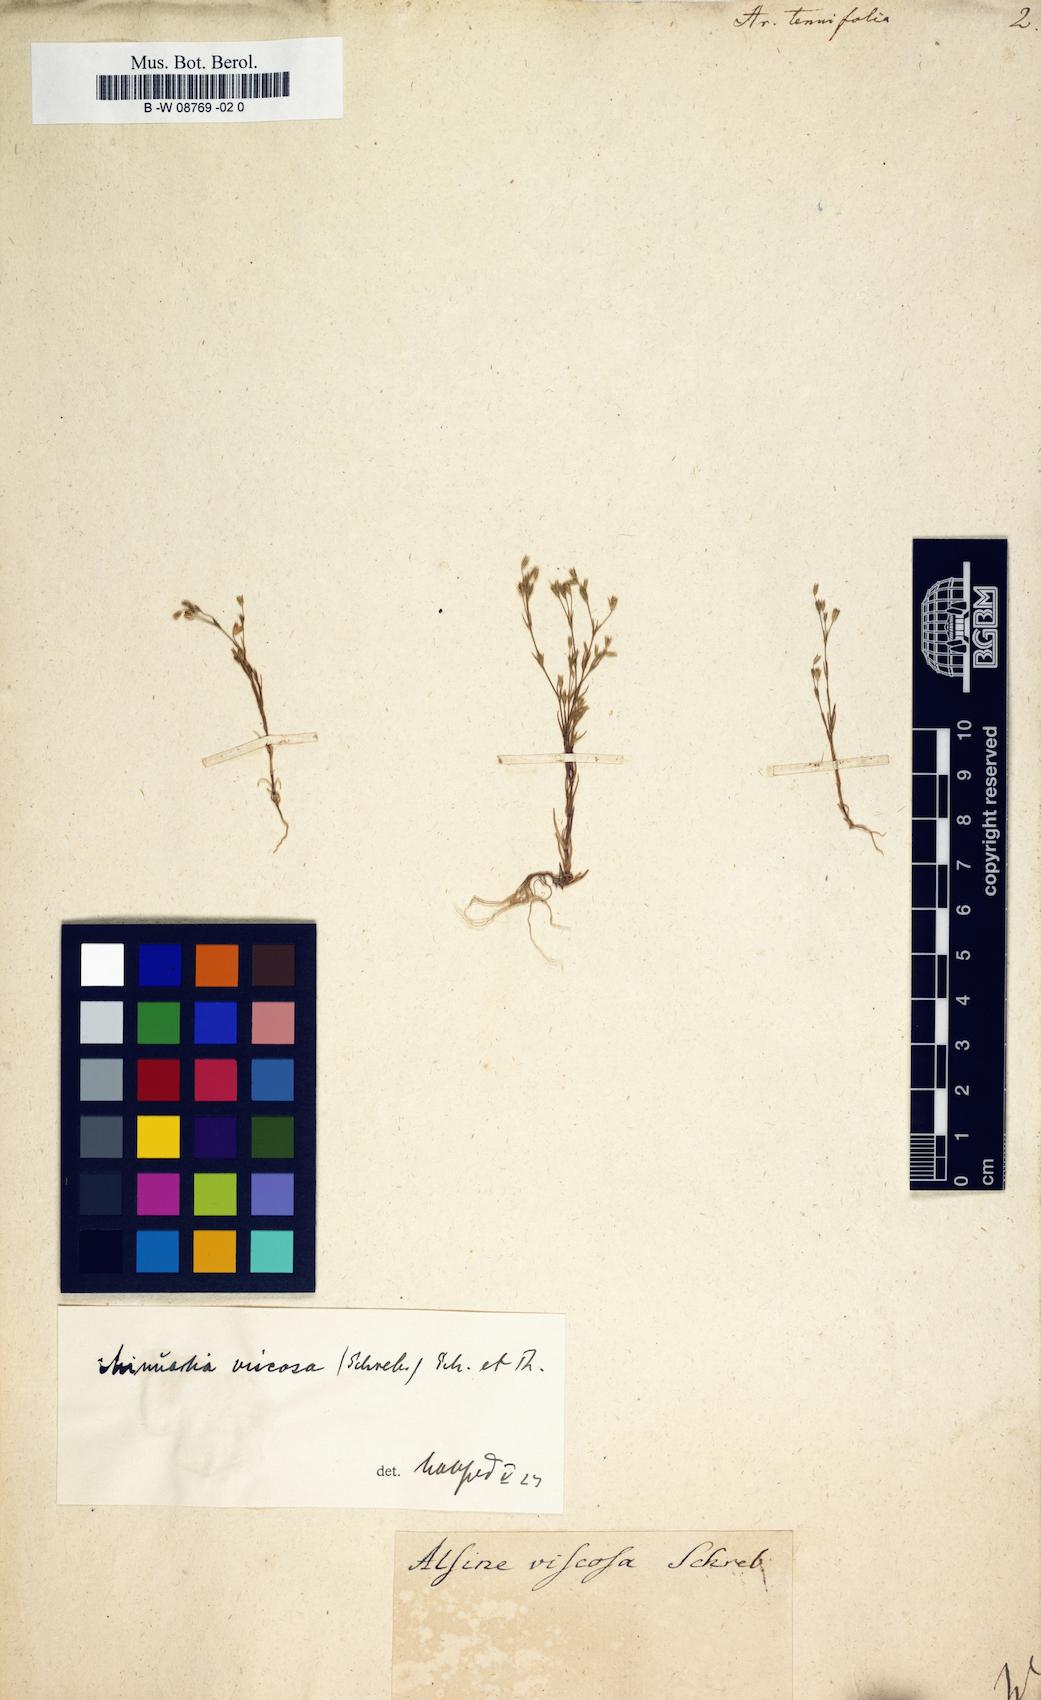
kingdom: Plantae
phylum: Tracheophyta
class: Magnoliopsida
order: Caryophyllales
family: Caryophyllaceae
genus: Sabulina
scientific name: Sabulina tenuifolia
